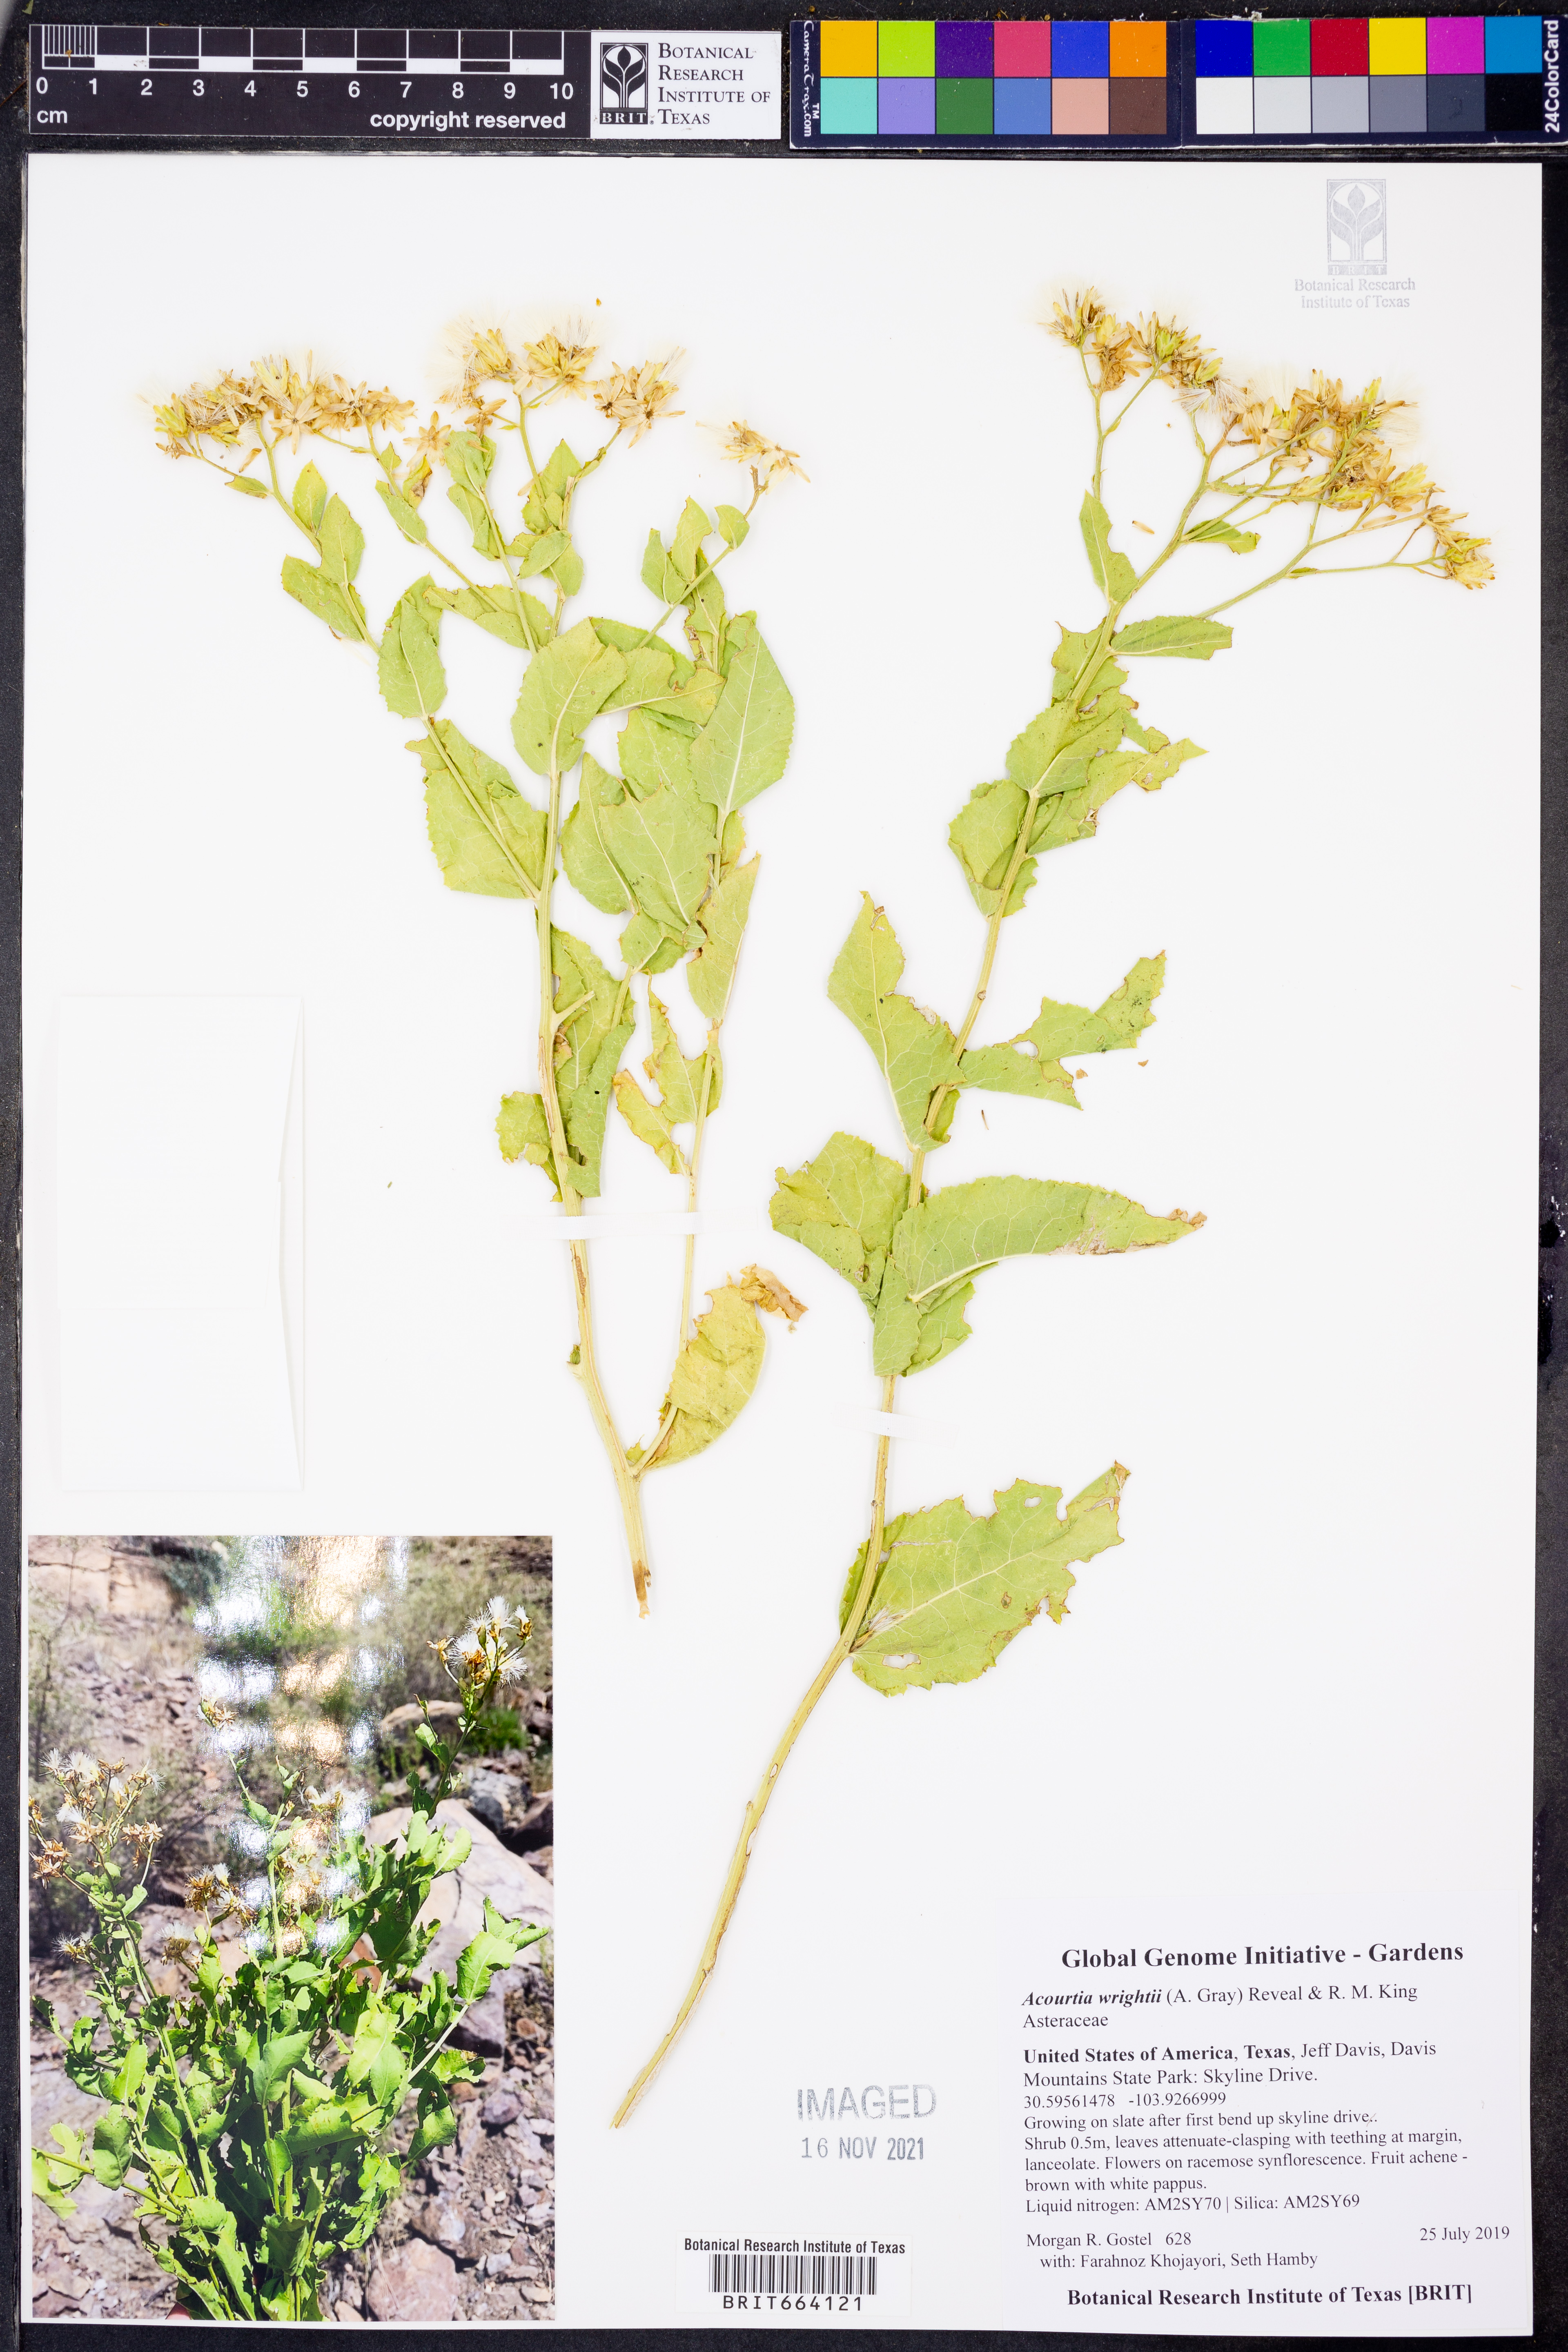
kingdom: Plantae
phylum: Tracheophyta
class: Magnoliopsida
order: Asterales
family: Asteraceae
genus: Acourtia
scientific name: Acourtia wrightii
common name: Brownfoot
